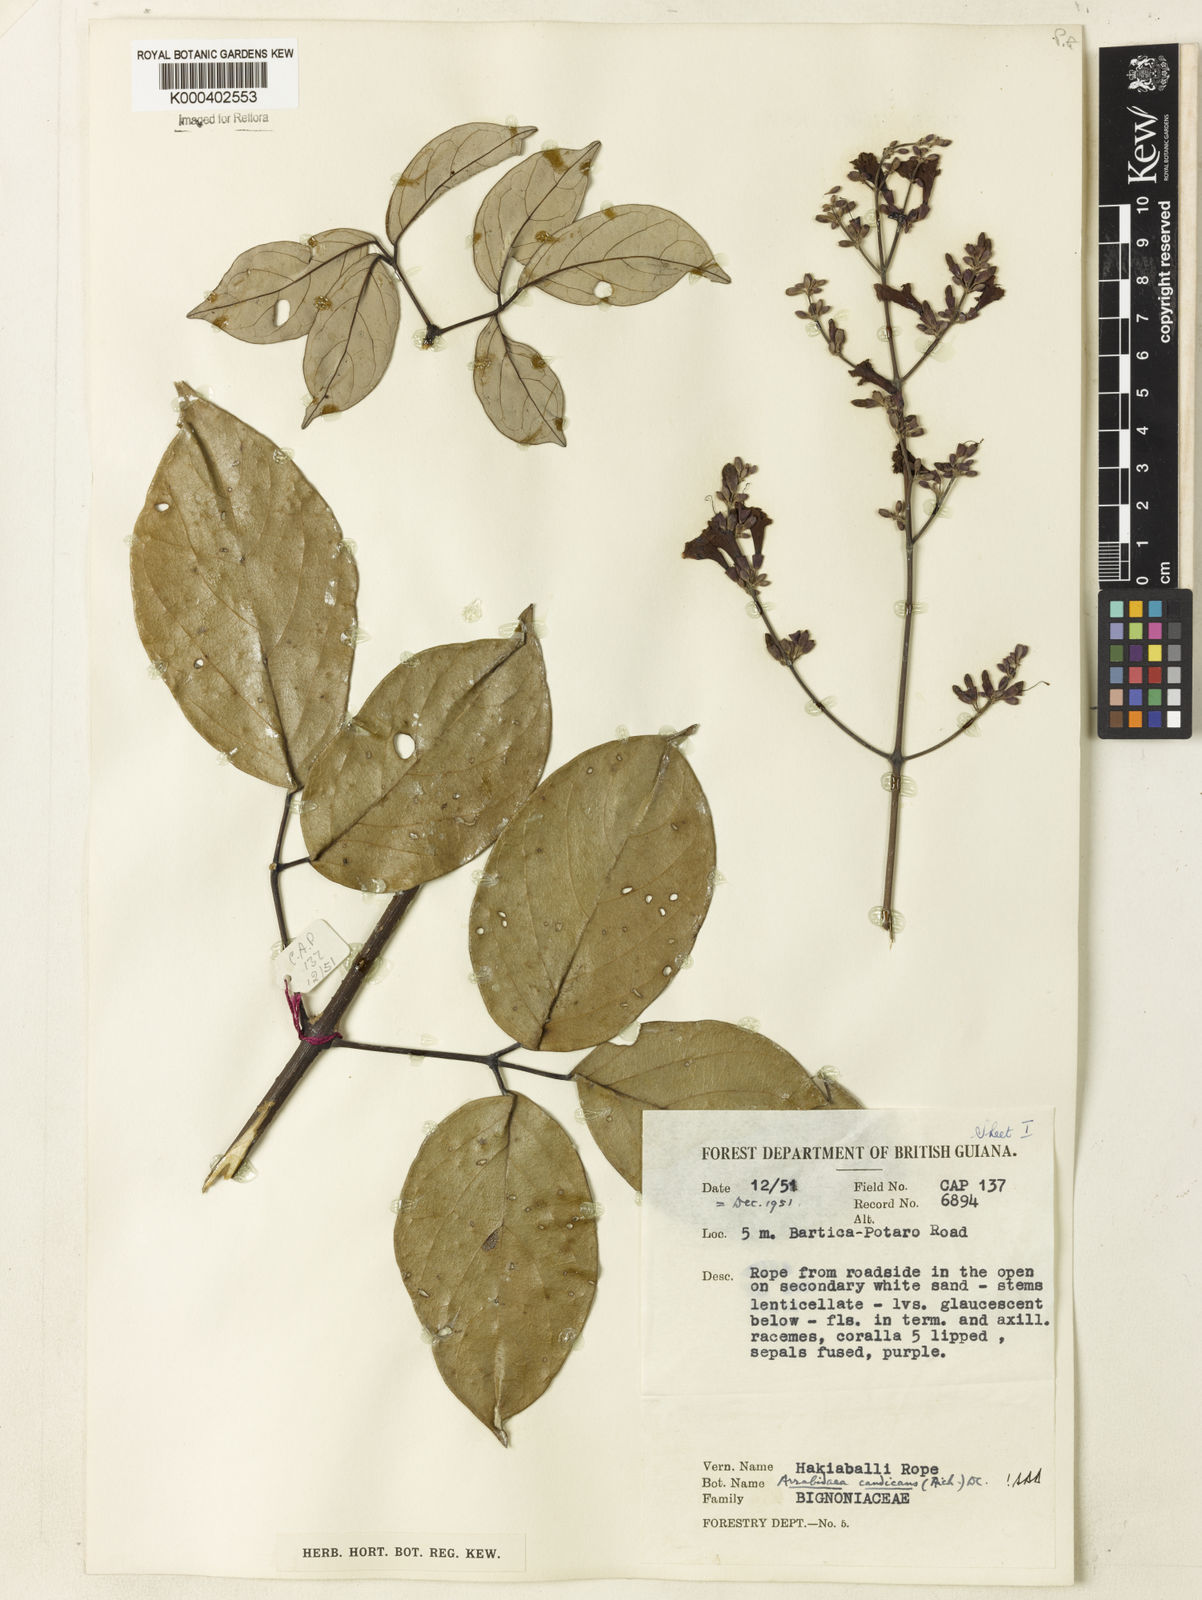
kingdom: Plantae
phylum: Tracheophyta
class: Magnoliopsida
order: Lamiales
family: Bignoniaceae
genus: Fridericia
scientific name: Fridericia candicans
